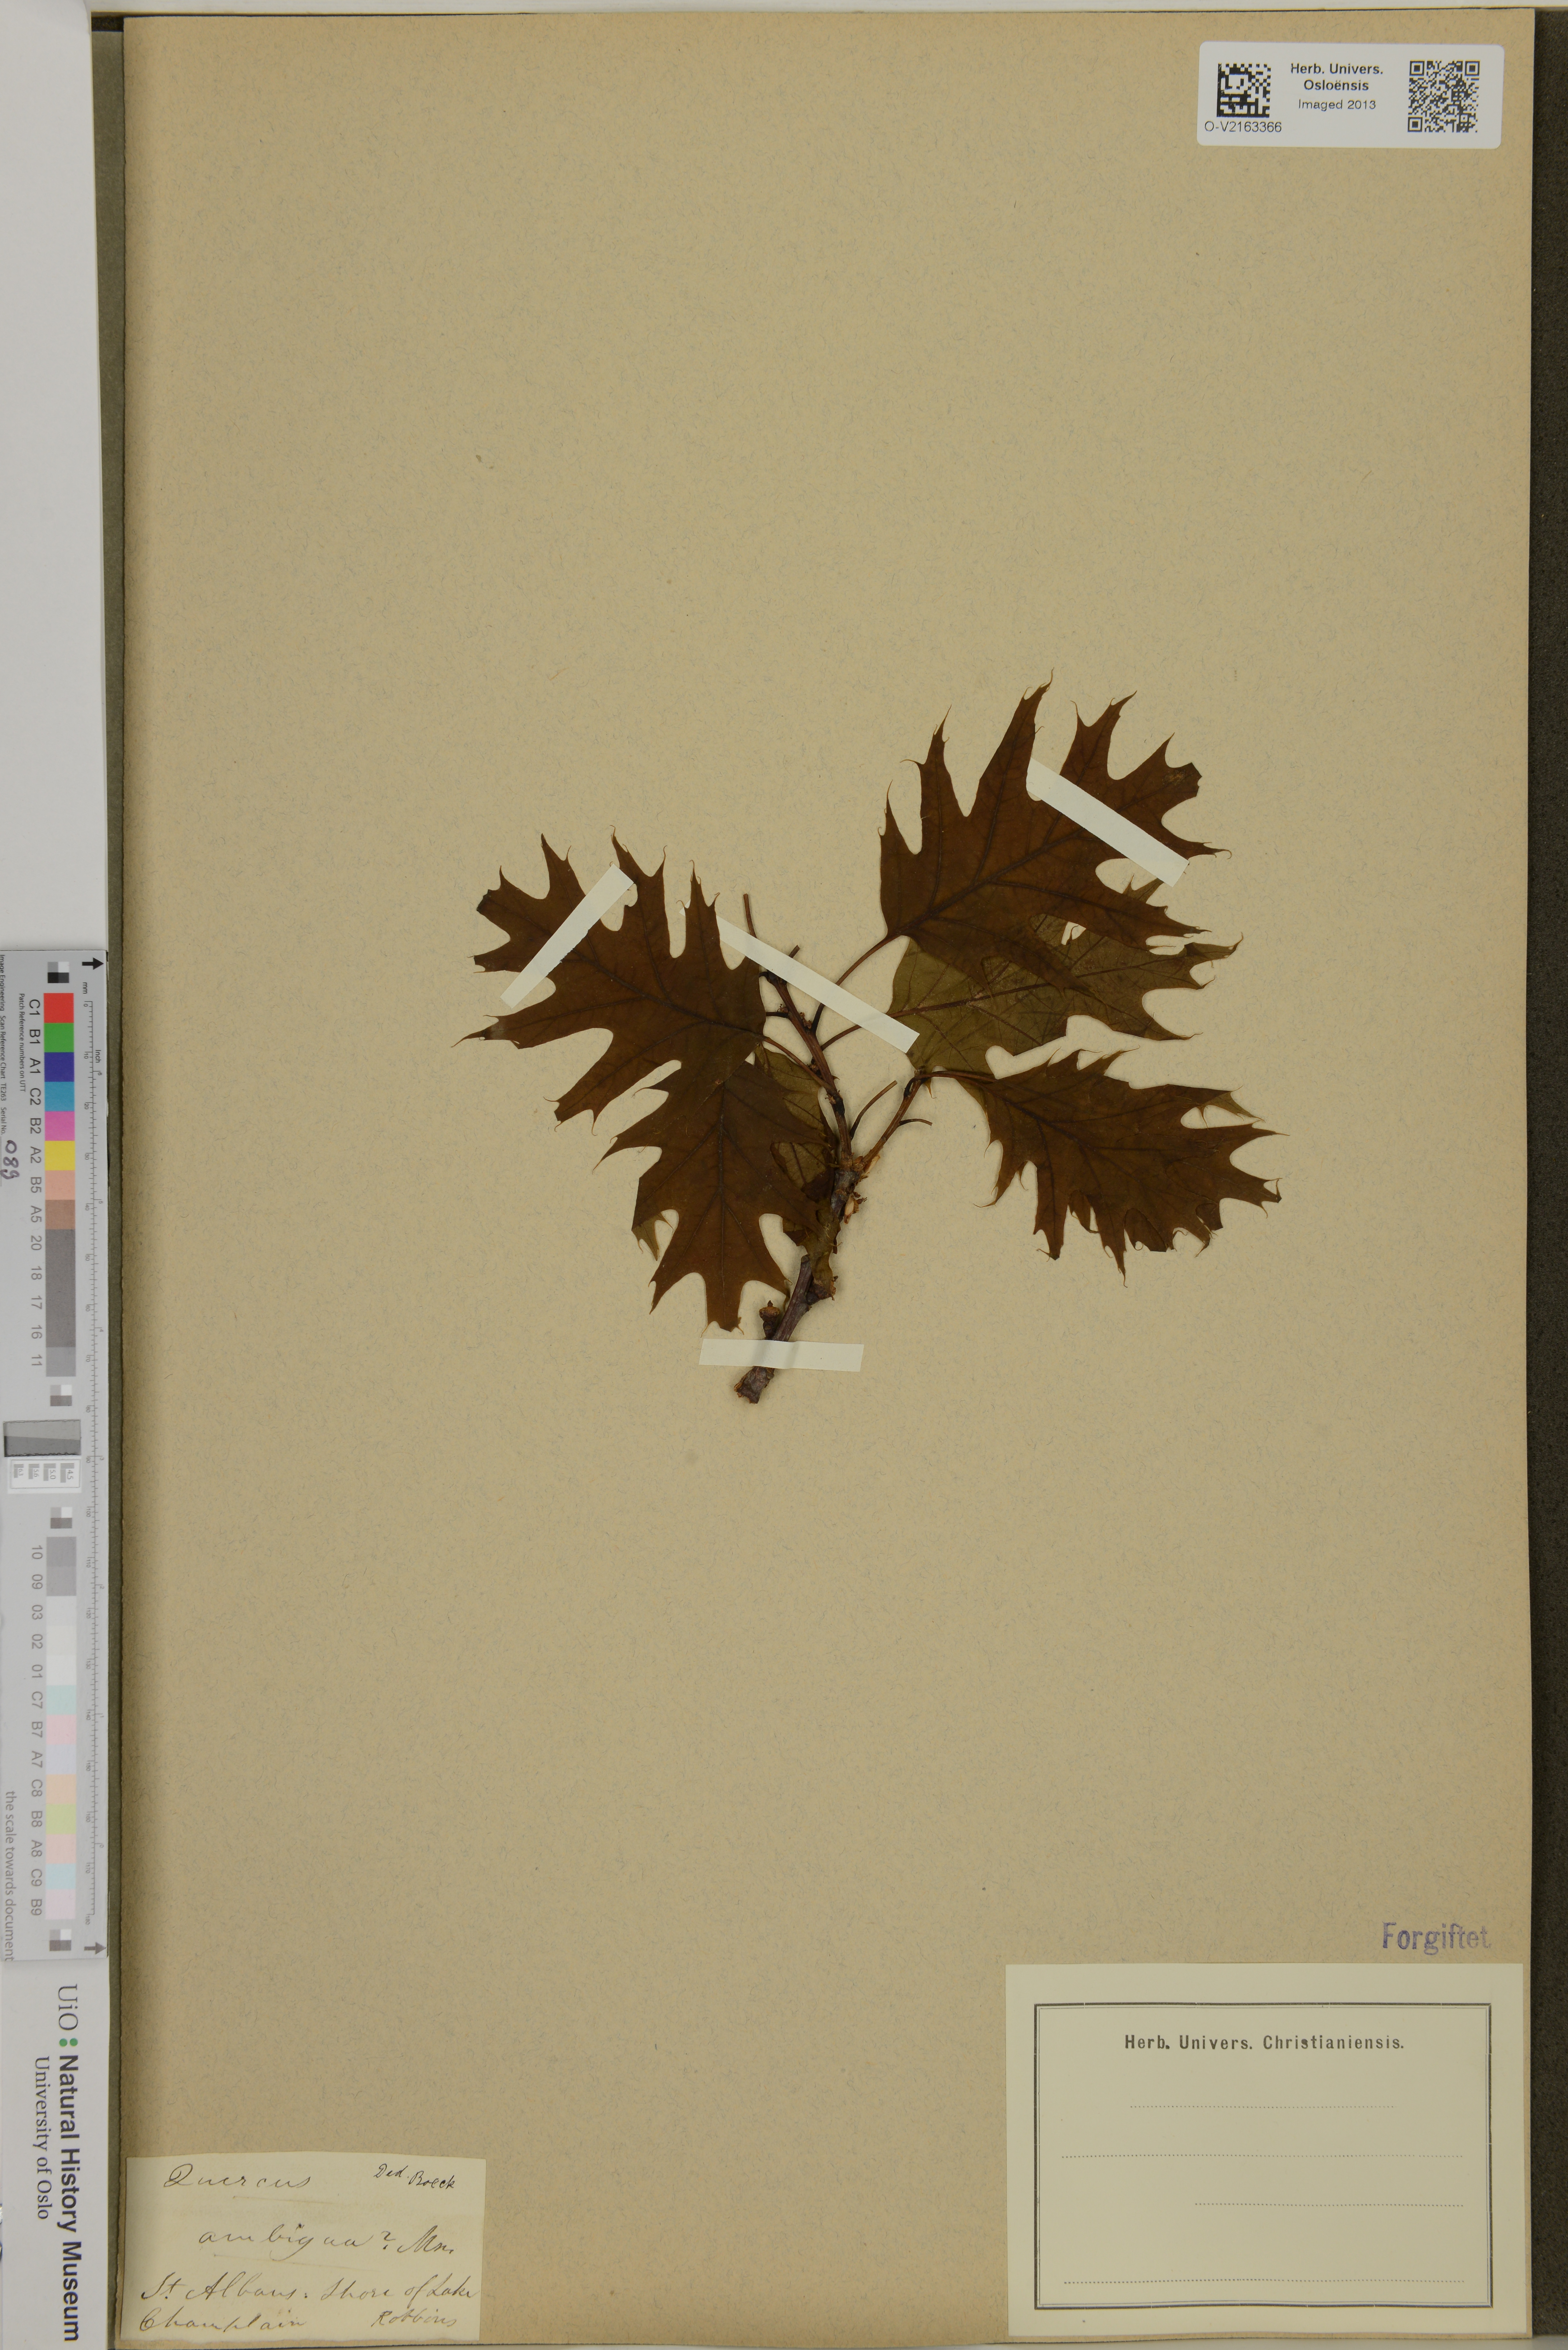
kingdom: Plantae
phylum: Tracheophyta
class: Magnoliopsida
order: Fagales
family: Fagaceae
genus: Quercus
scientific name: Quercus
